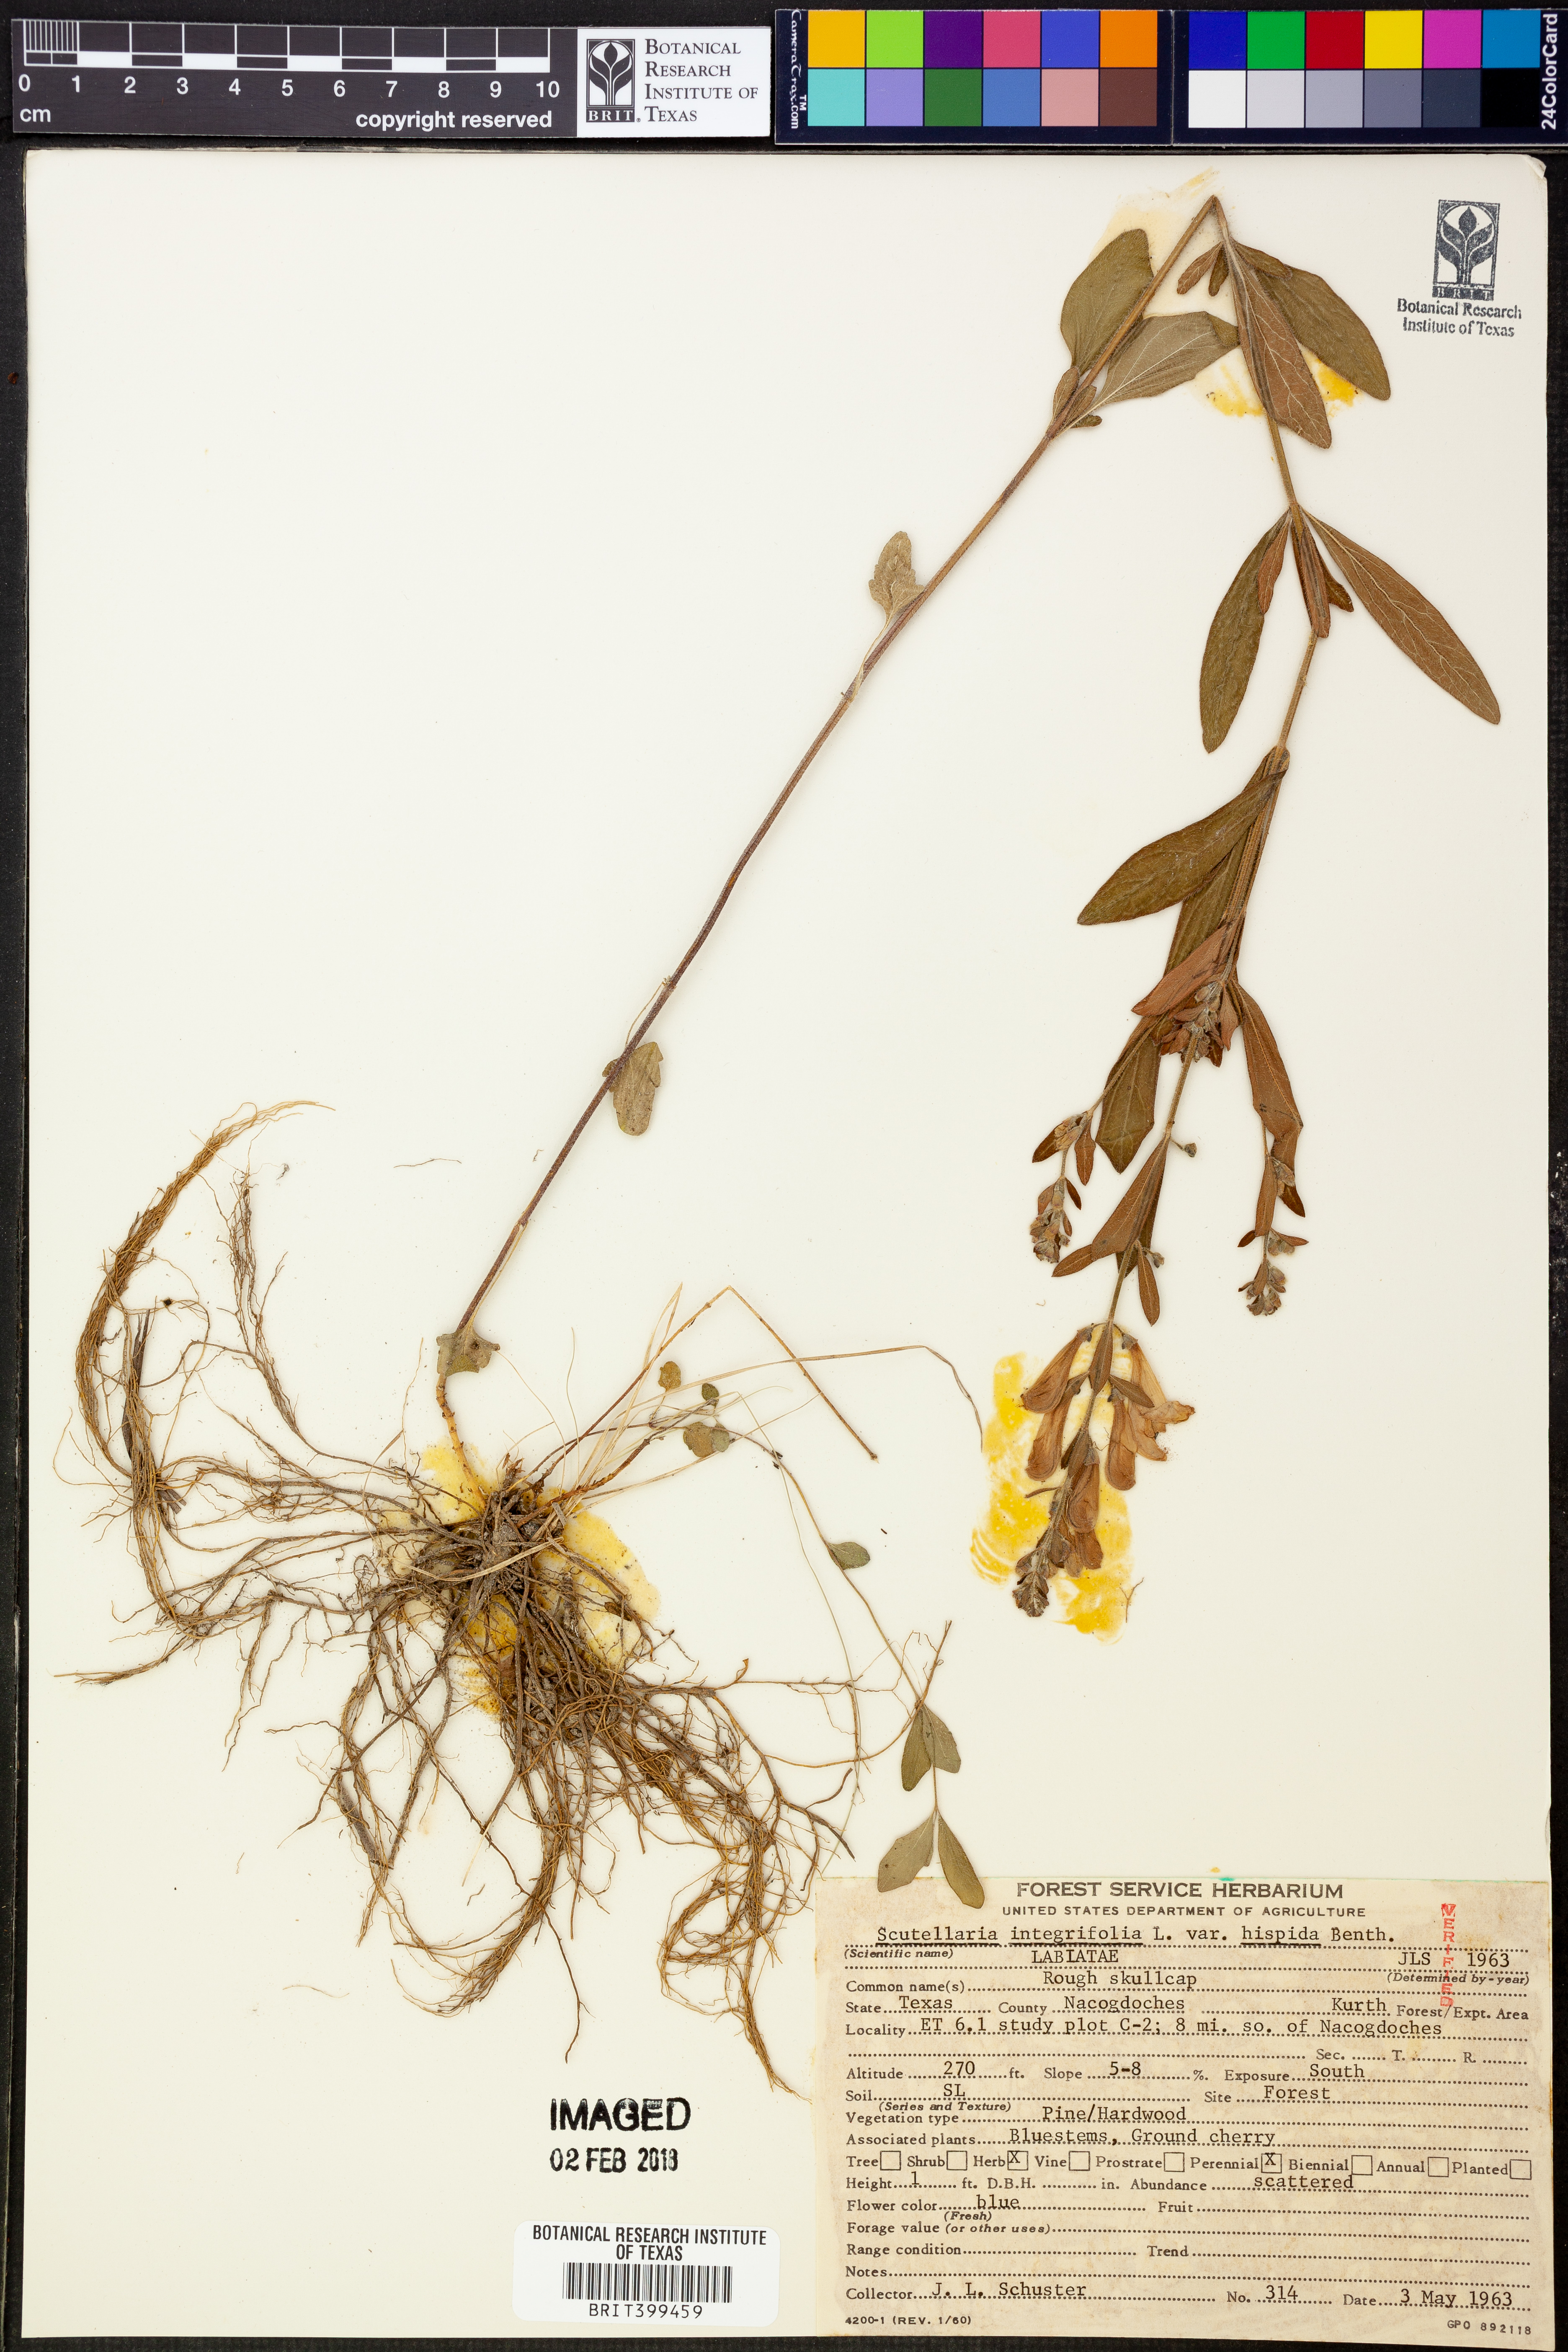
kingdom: Plantae
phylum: Tracheophyta
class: Magnoliopsida
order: Lamiales
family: Lamiaceae
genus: Scutellaria
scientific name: Scutellaria integrifolia
